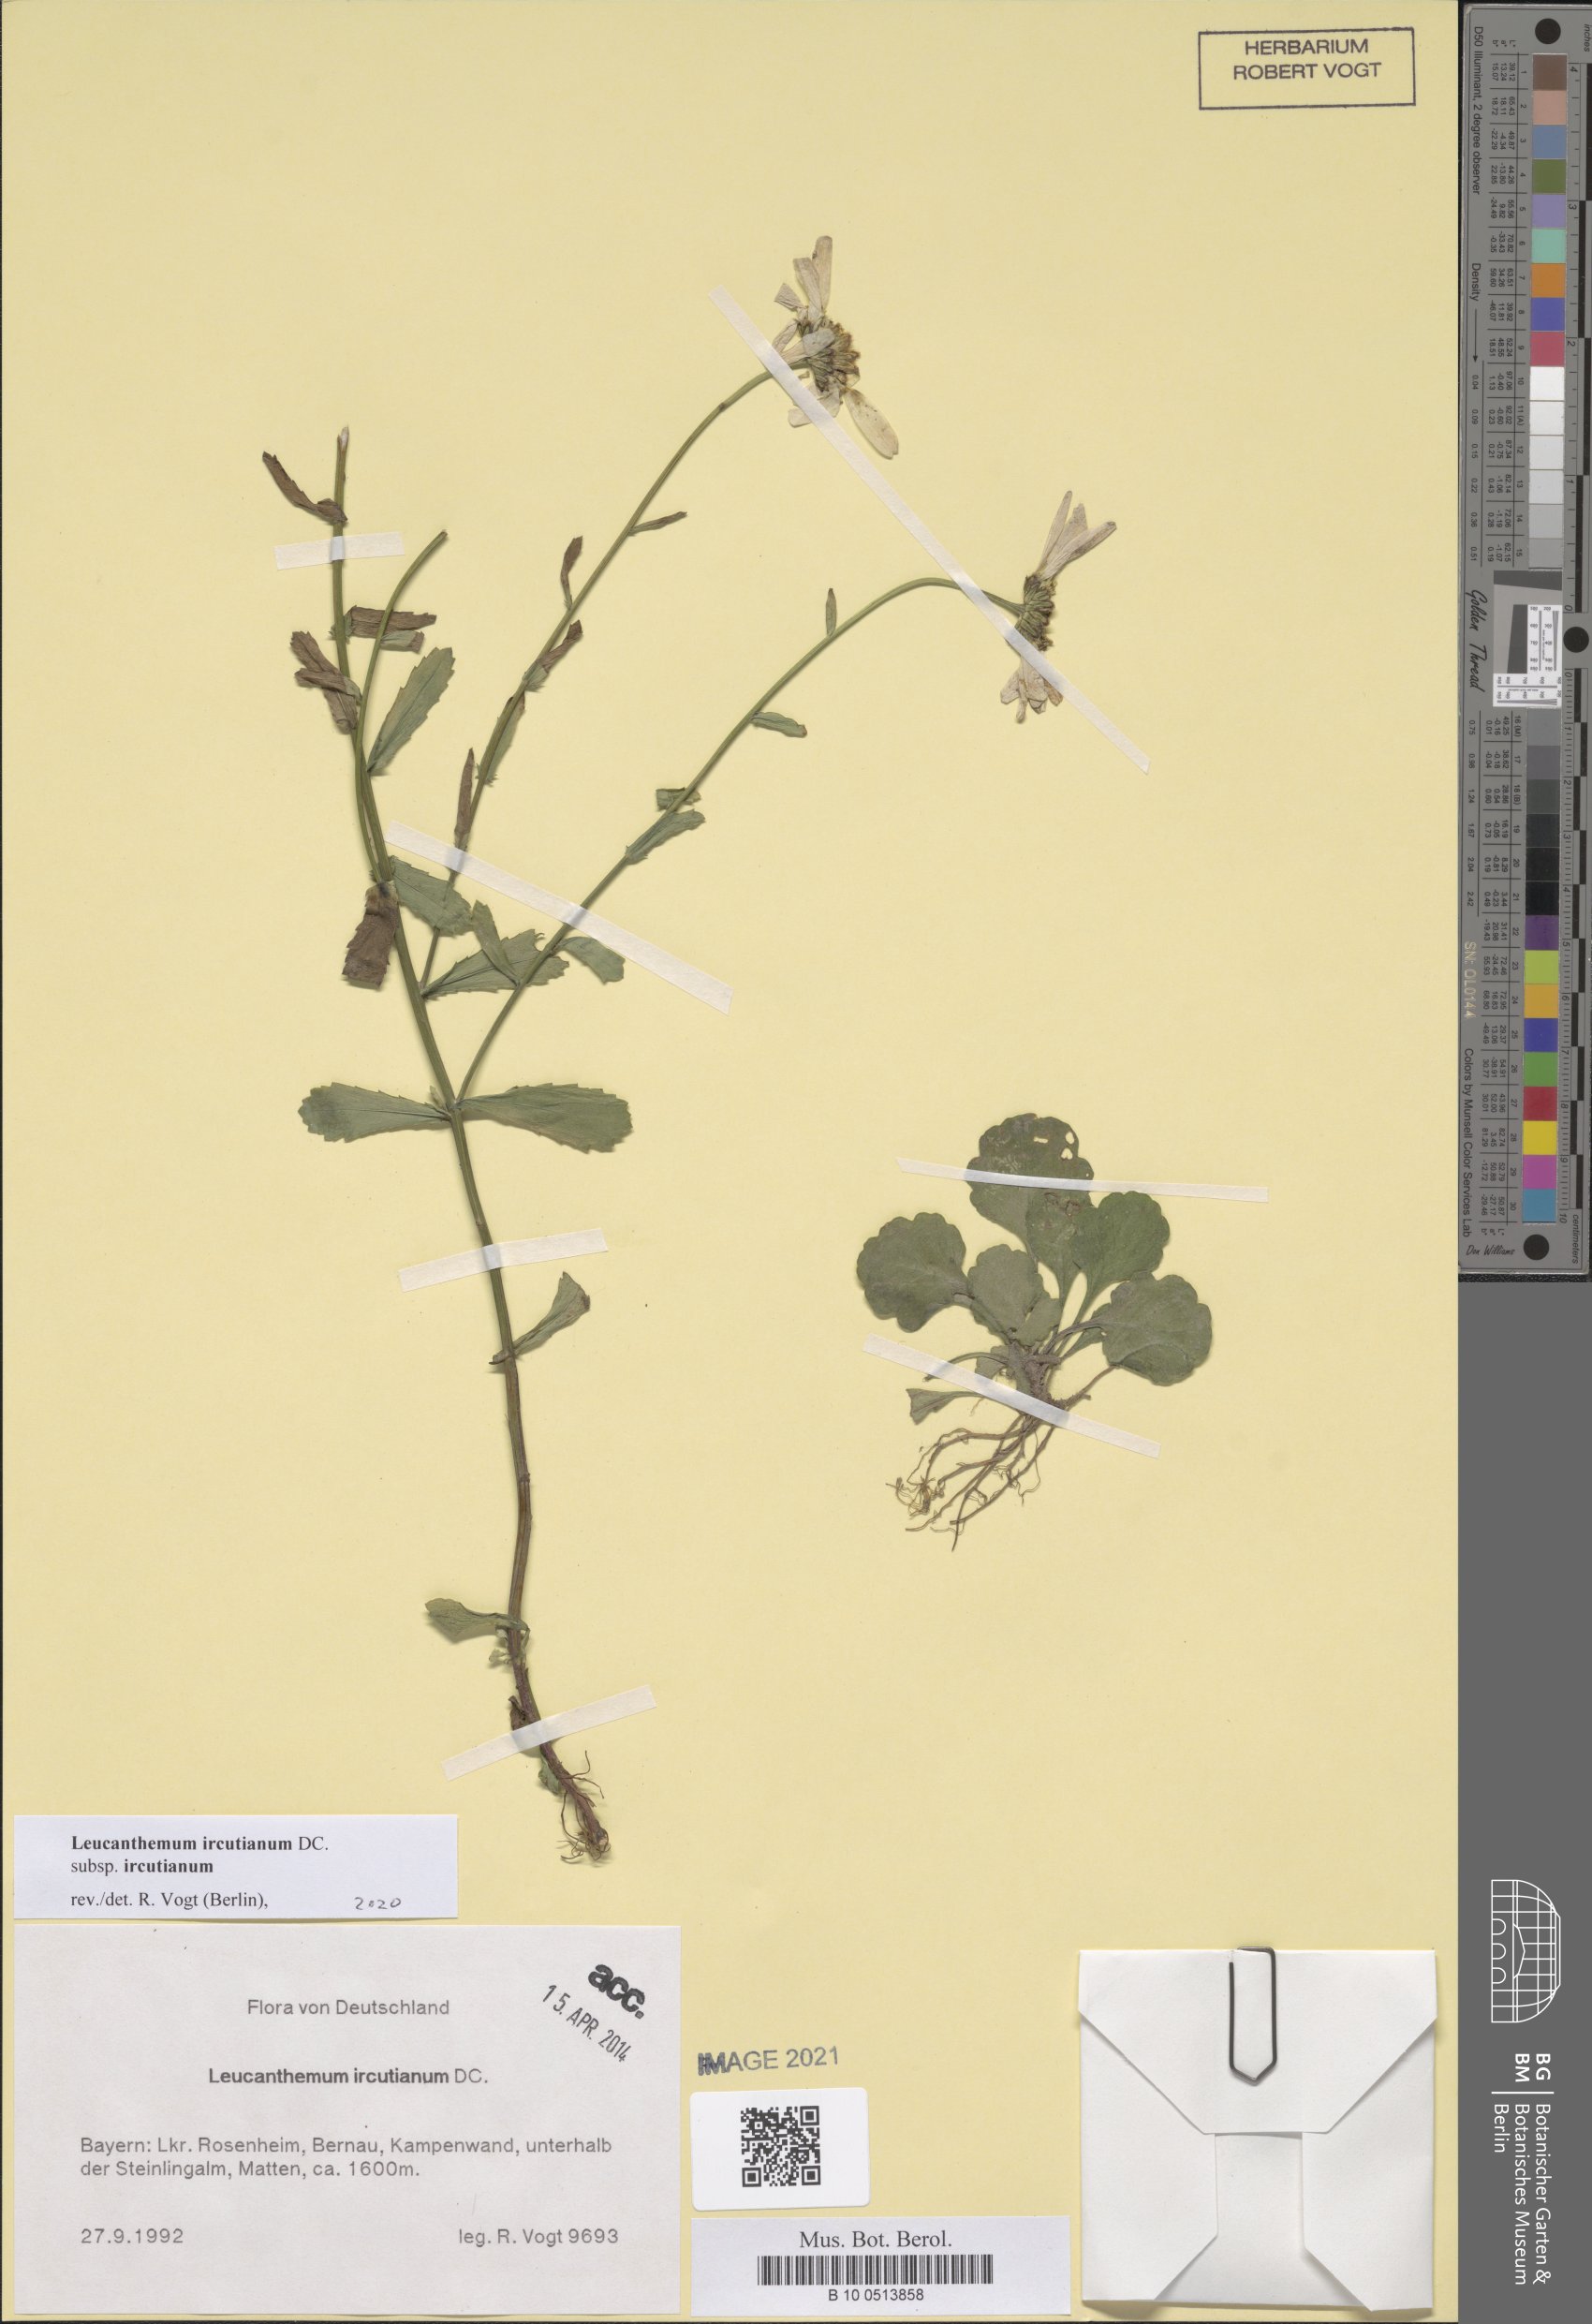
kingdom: Plantae
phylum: Tracheophyta
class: Magnoliopsida
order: Asterales
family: Asteraceae
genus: Leucanthemum
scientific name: Leucanthemum ircutianum
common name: Daisy
